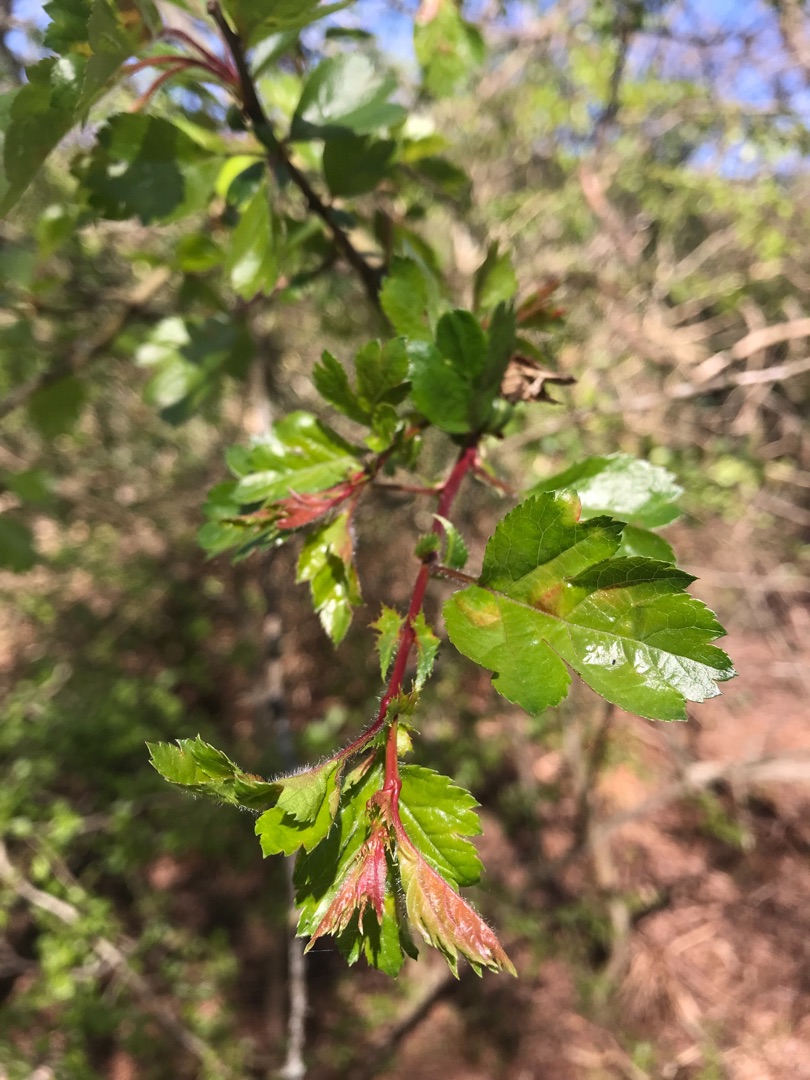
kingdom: Plantae
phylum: Tracheophyta
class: Magnoliopsida
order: Rosales
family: Rosaceae
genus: Crataegus
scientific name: Crataegus
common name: Hvidtjørnslægten
